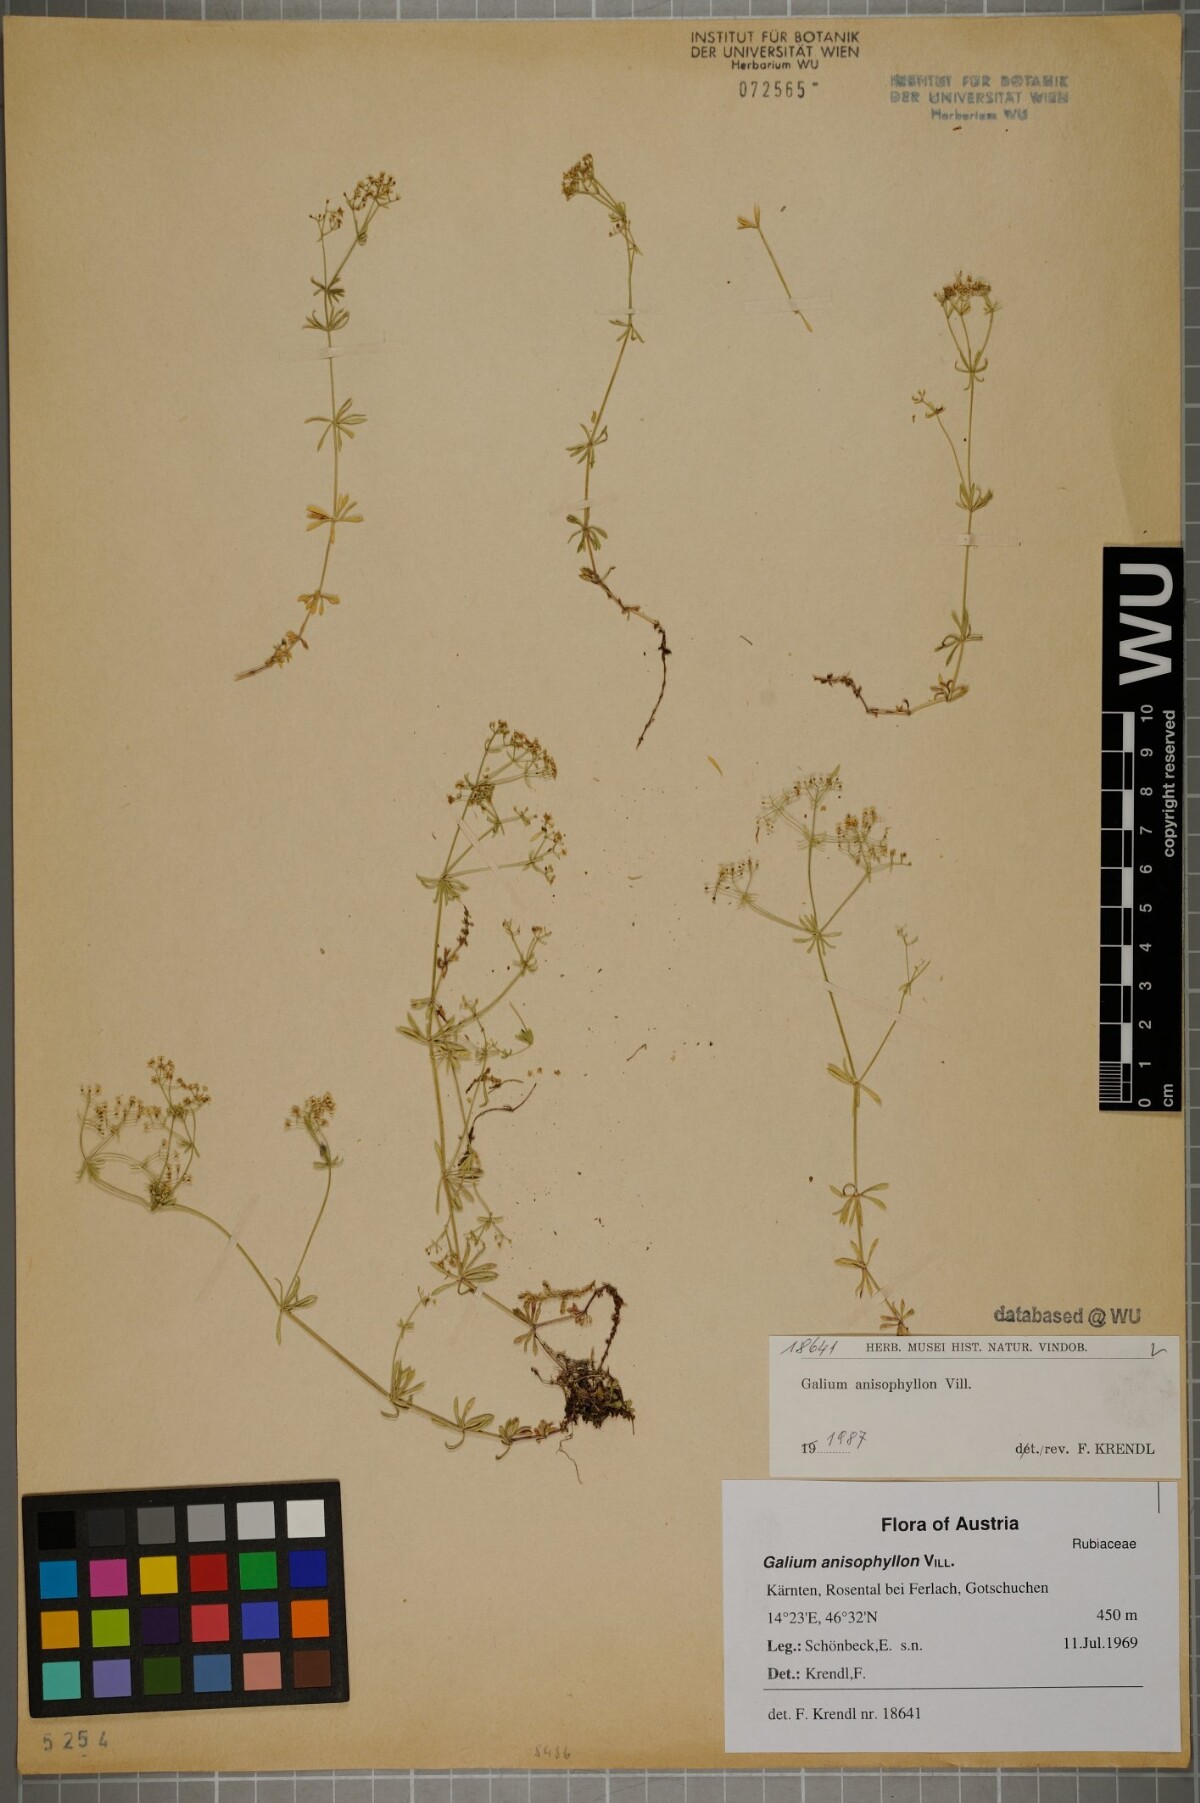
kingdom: Plantae
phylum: Tracheophyta
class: Magnoliopsida
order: Gentianales
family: Rubiaceae
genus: Galium
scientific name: Galium anisophyllon
